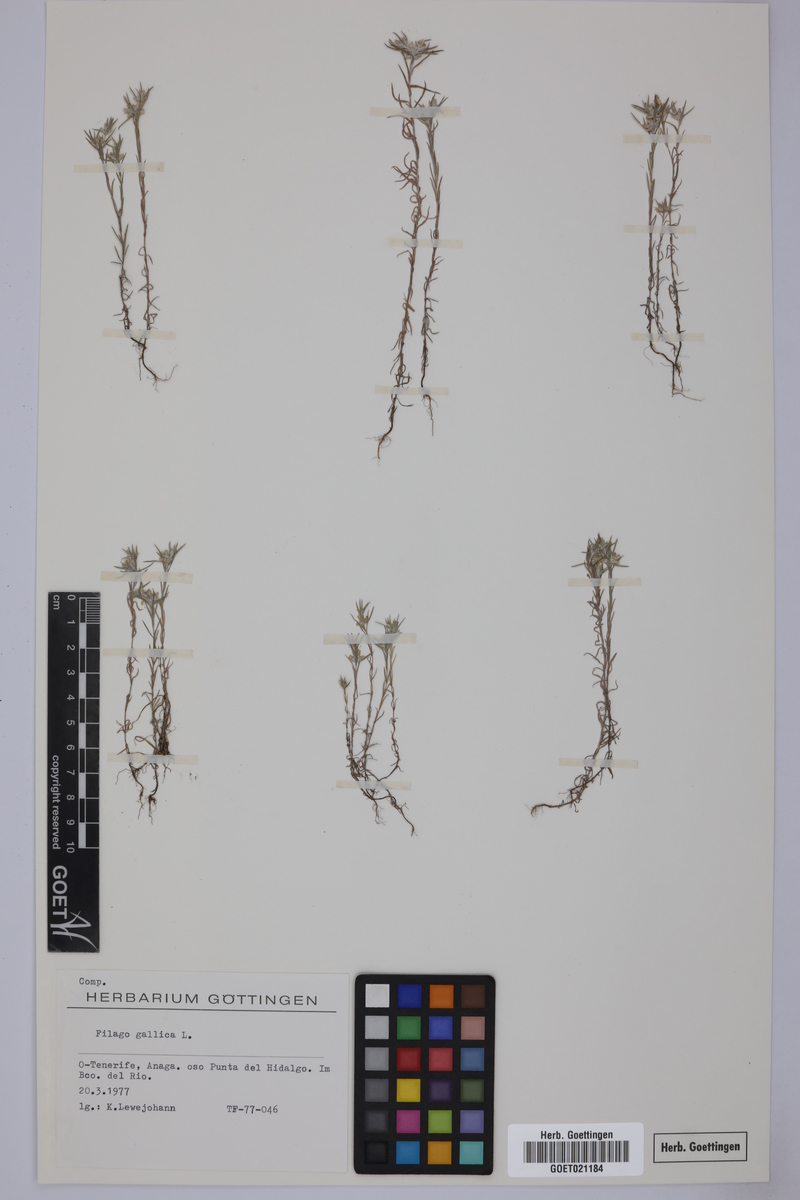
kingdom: Plantae
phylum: Tracheophyta
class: Magnoliopsida
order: Asterales
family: Asteraceae
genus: Logfia
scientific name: Logfia gallica
